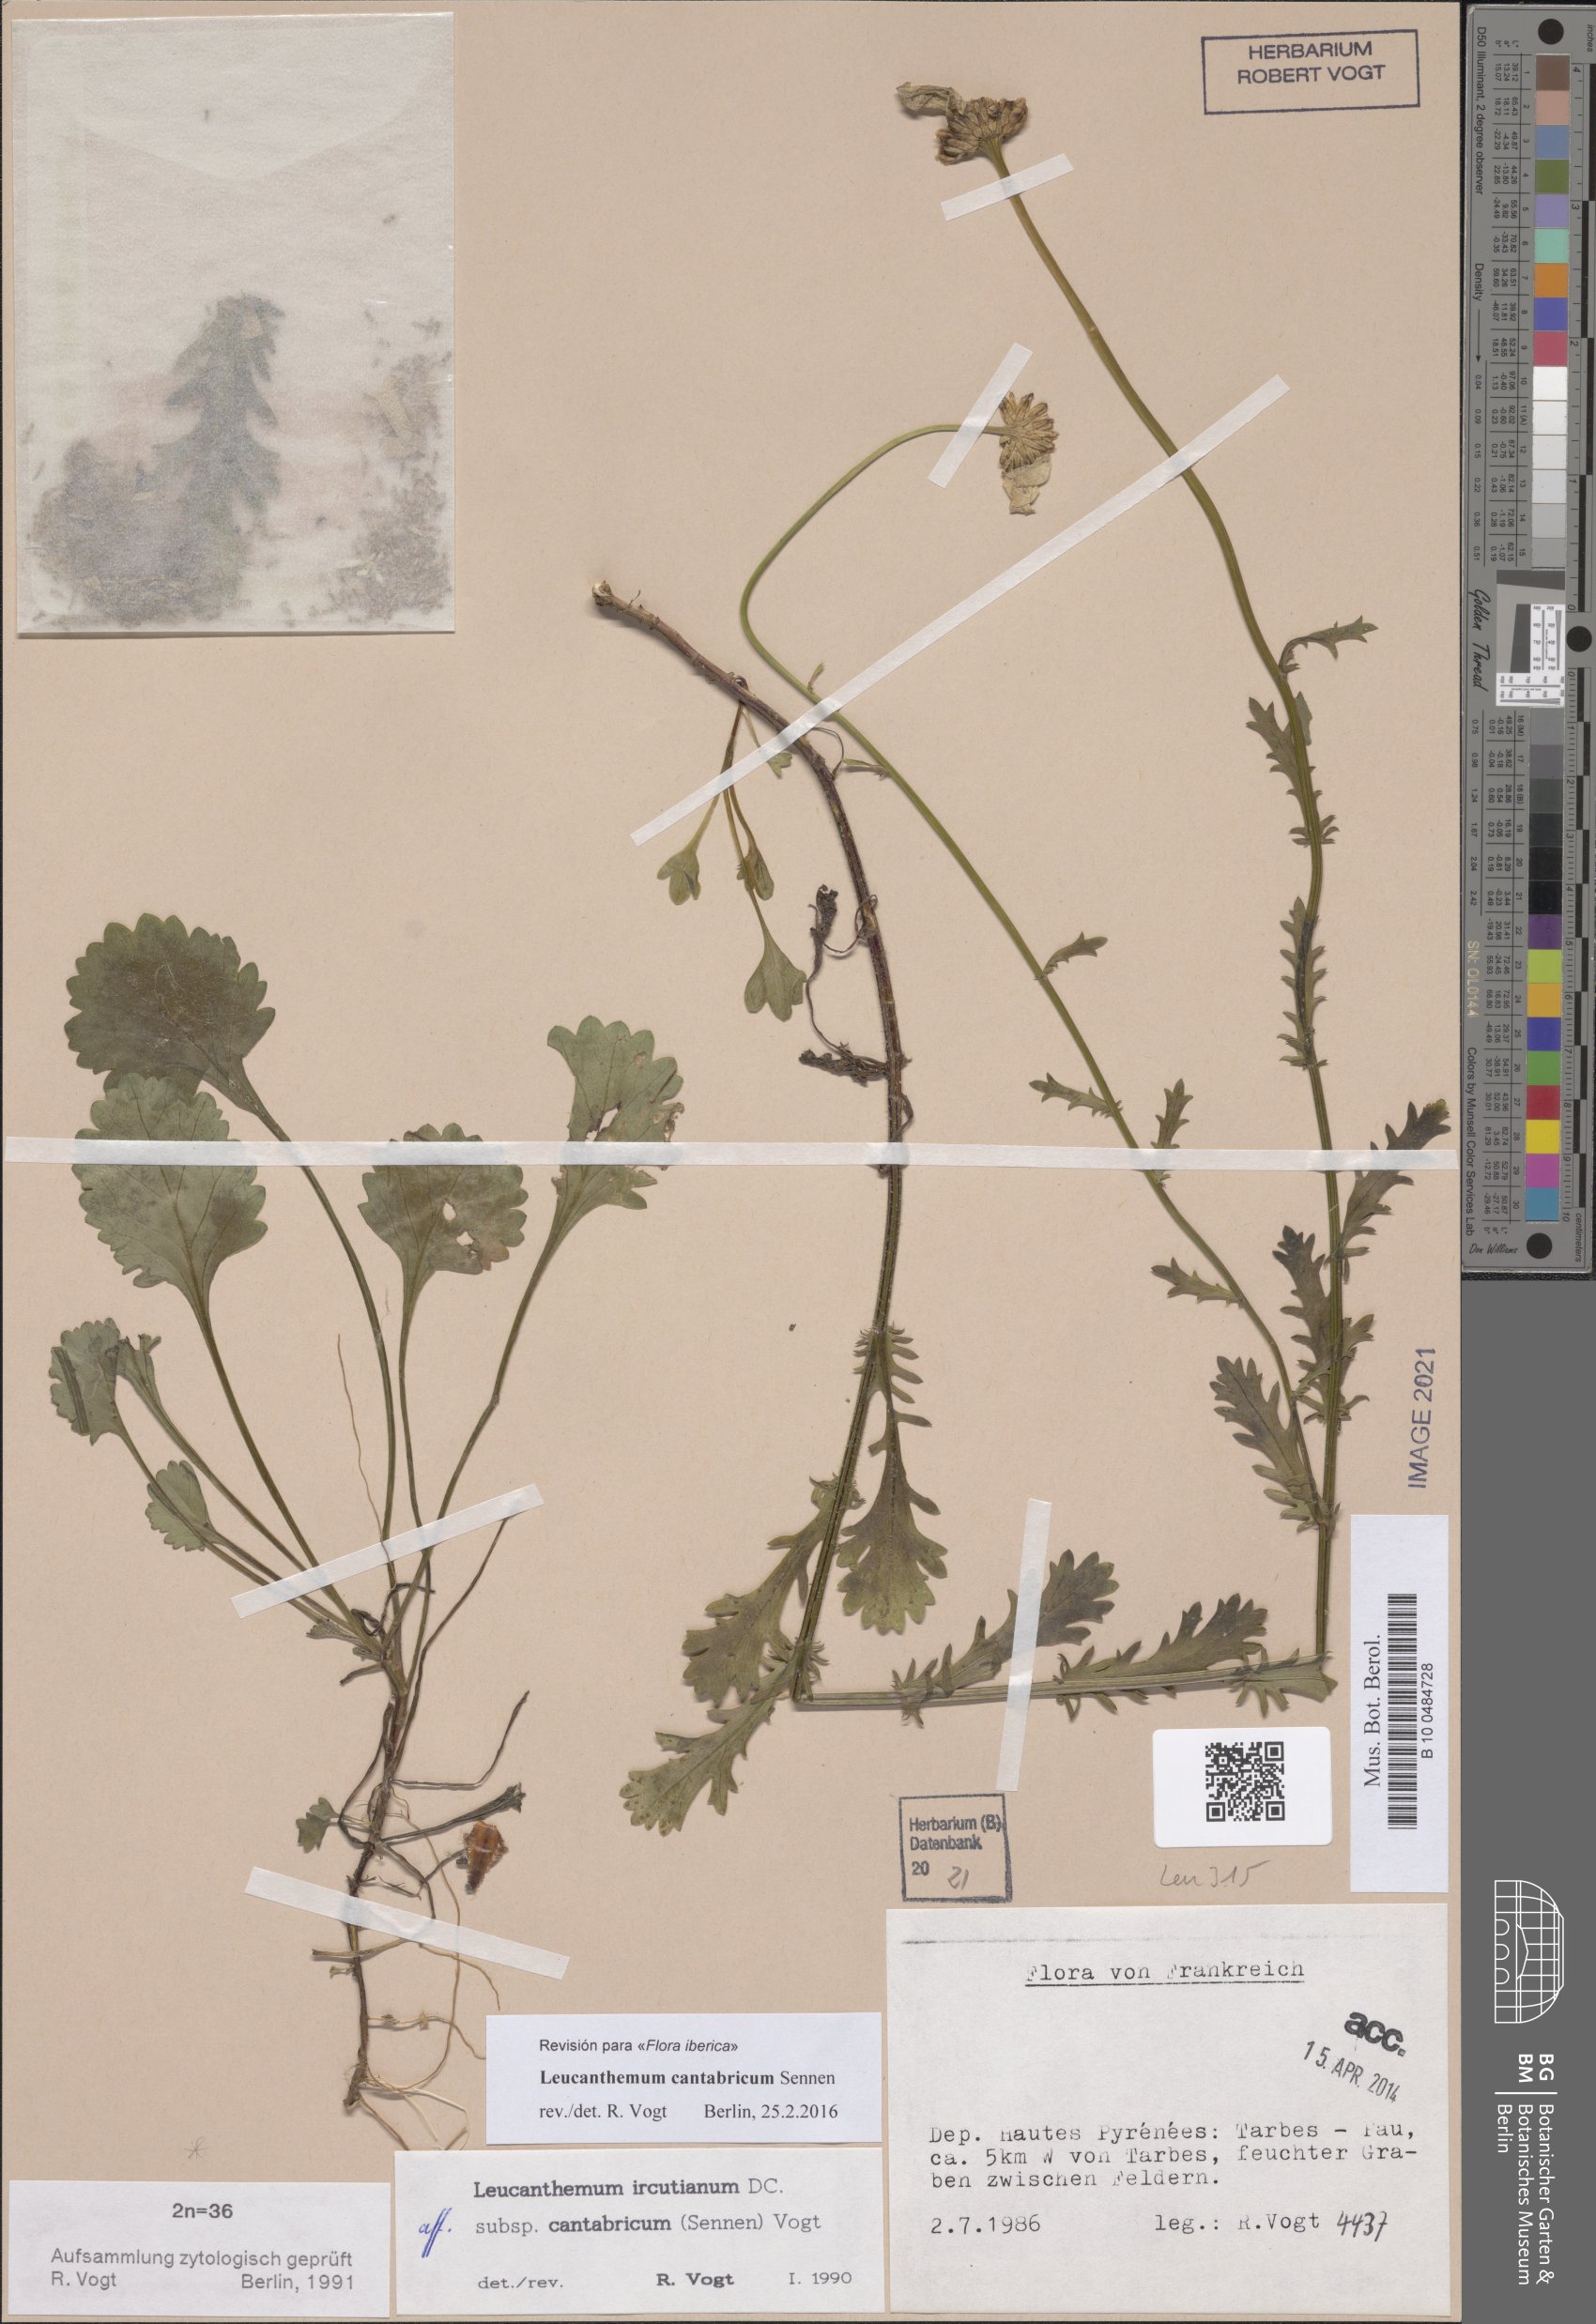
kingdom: Plantae
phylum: Tracheophyta
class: Magnoliopsida
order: Asterales
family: Asteraceae
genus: Leucanthemum
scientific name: Leucanthemum cantabricum
